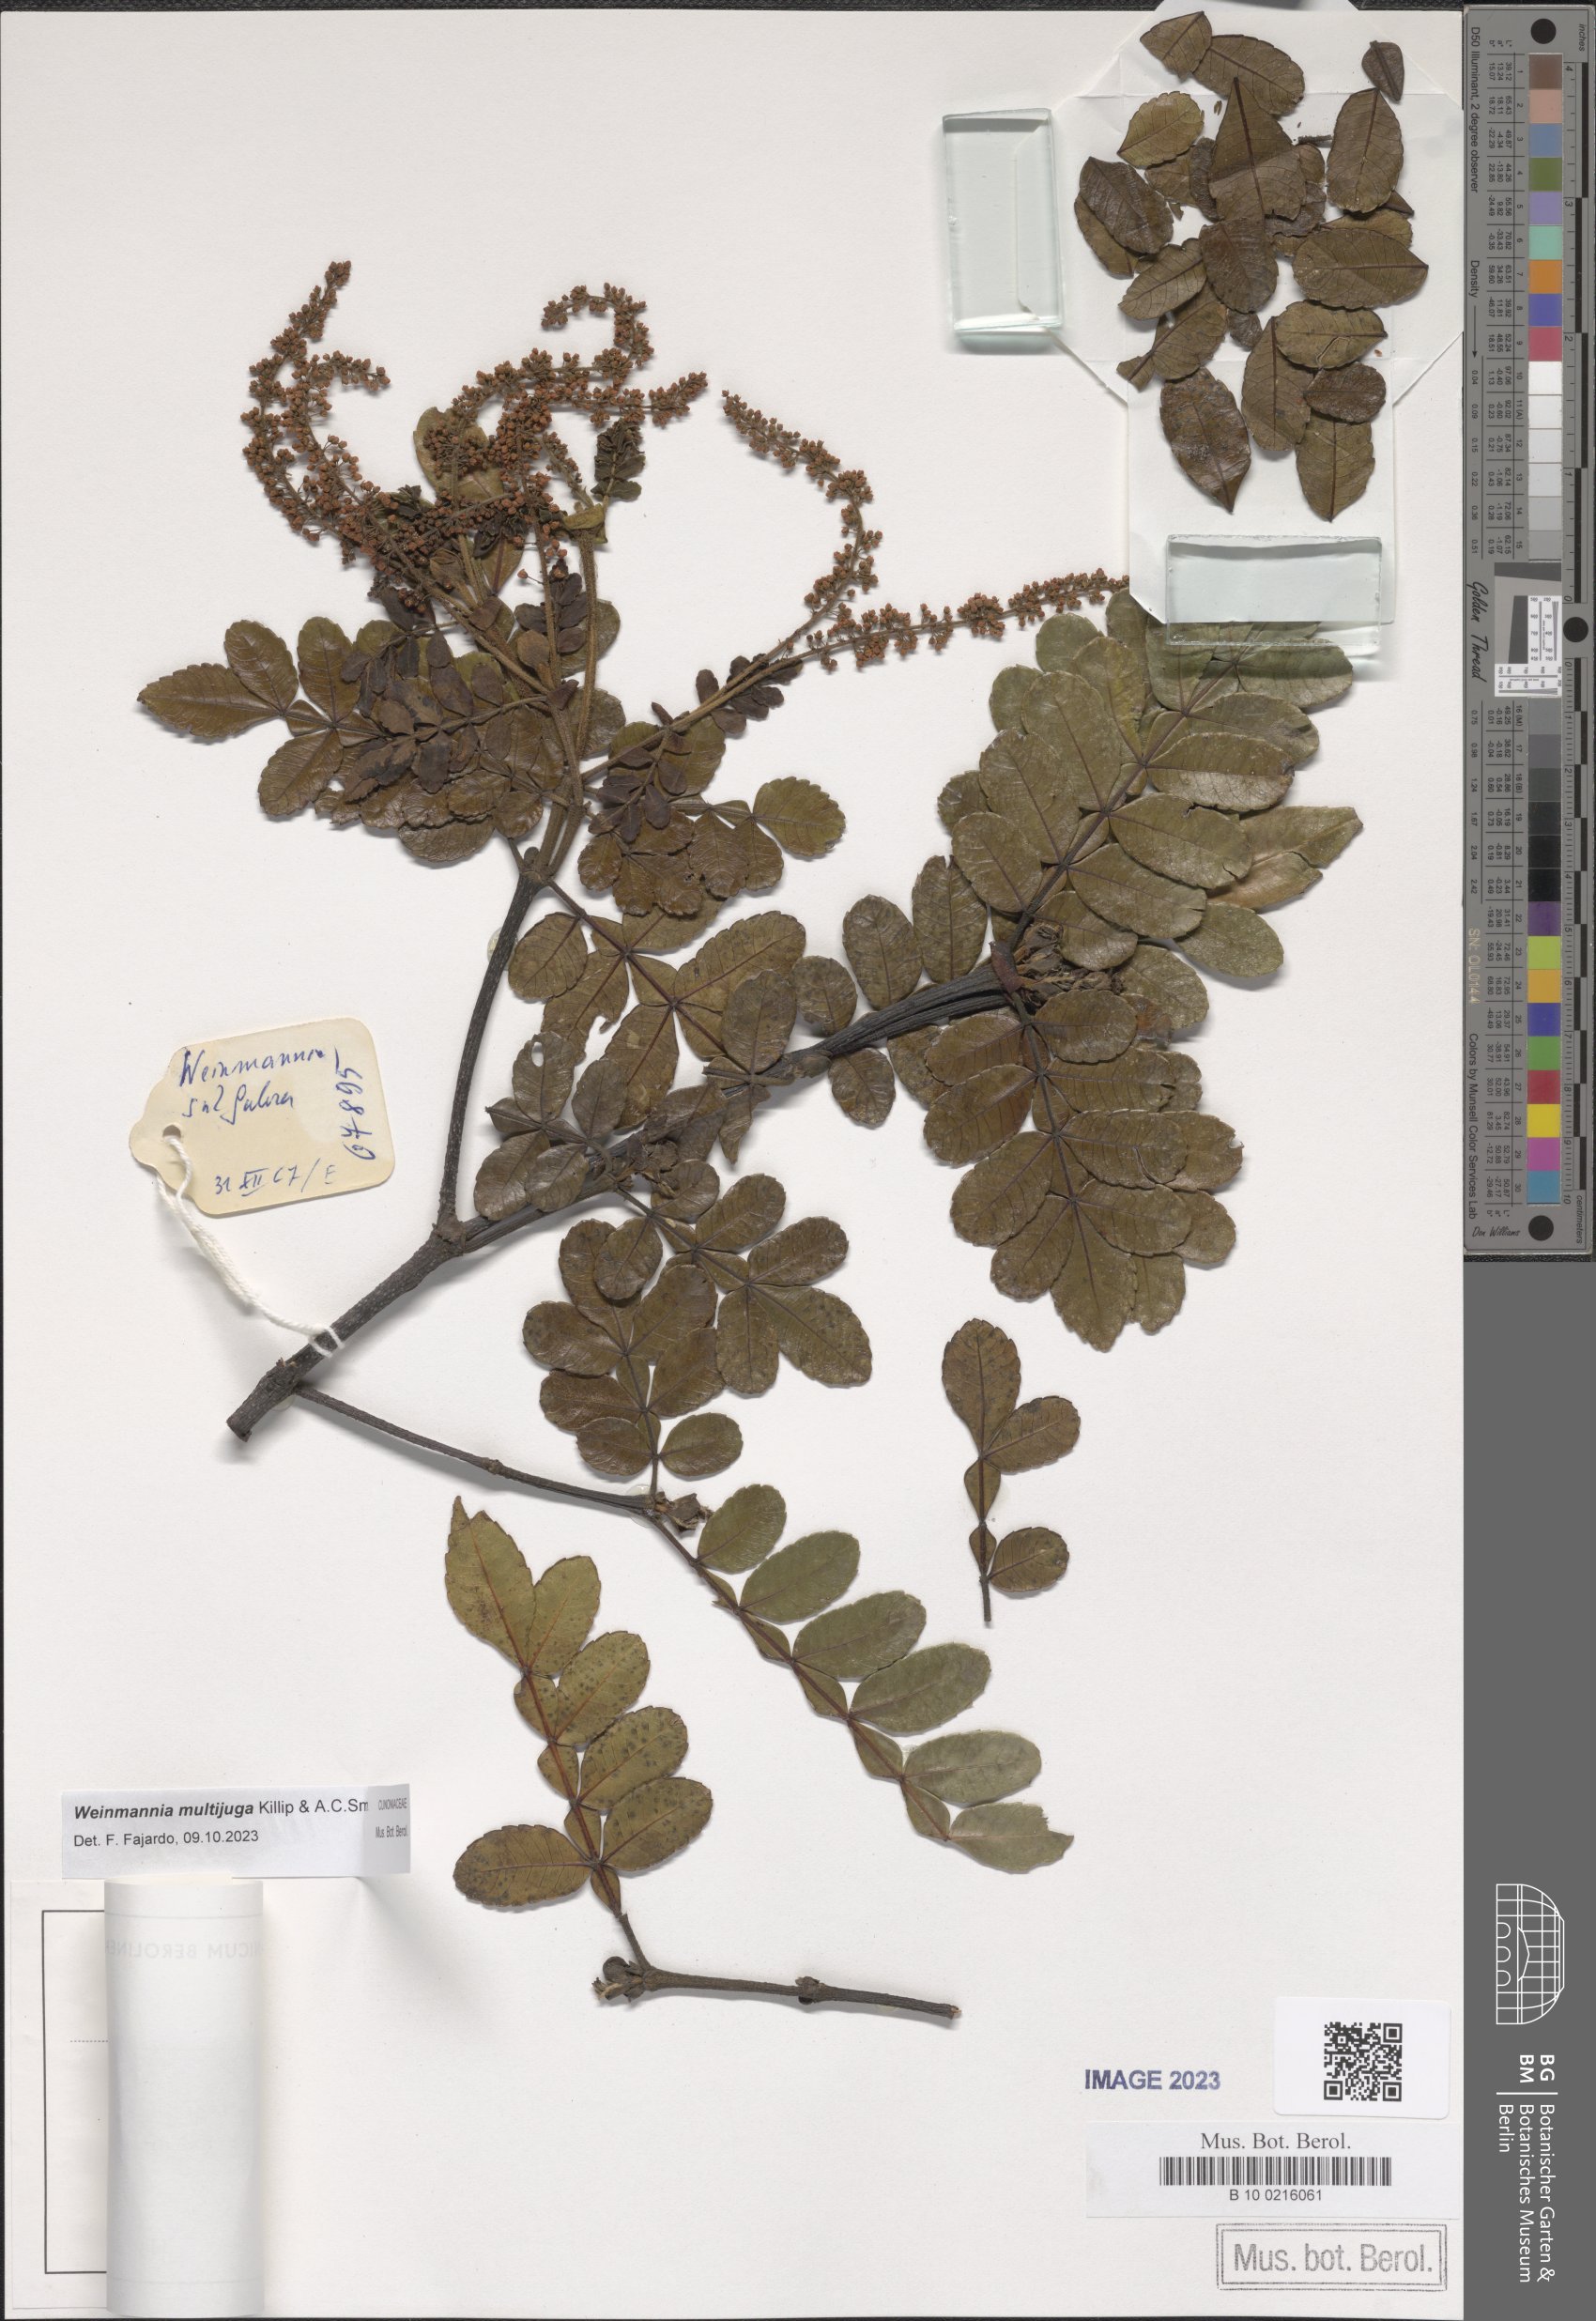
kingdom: Plantae
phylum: Tracheophyta
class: Magnoliopsida
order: Oxalidales
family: Cunoniaceae
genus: Weinmannia
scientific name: Weinmannia multijuga
